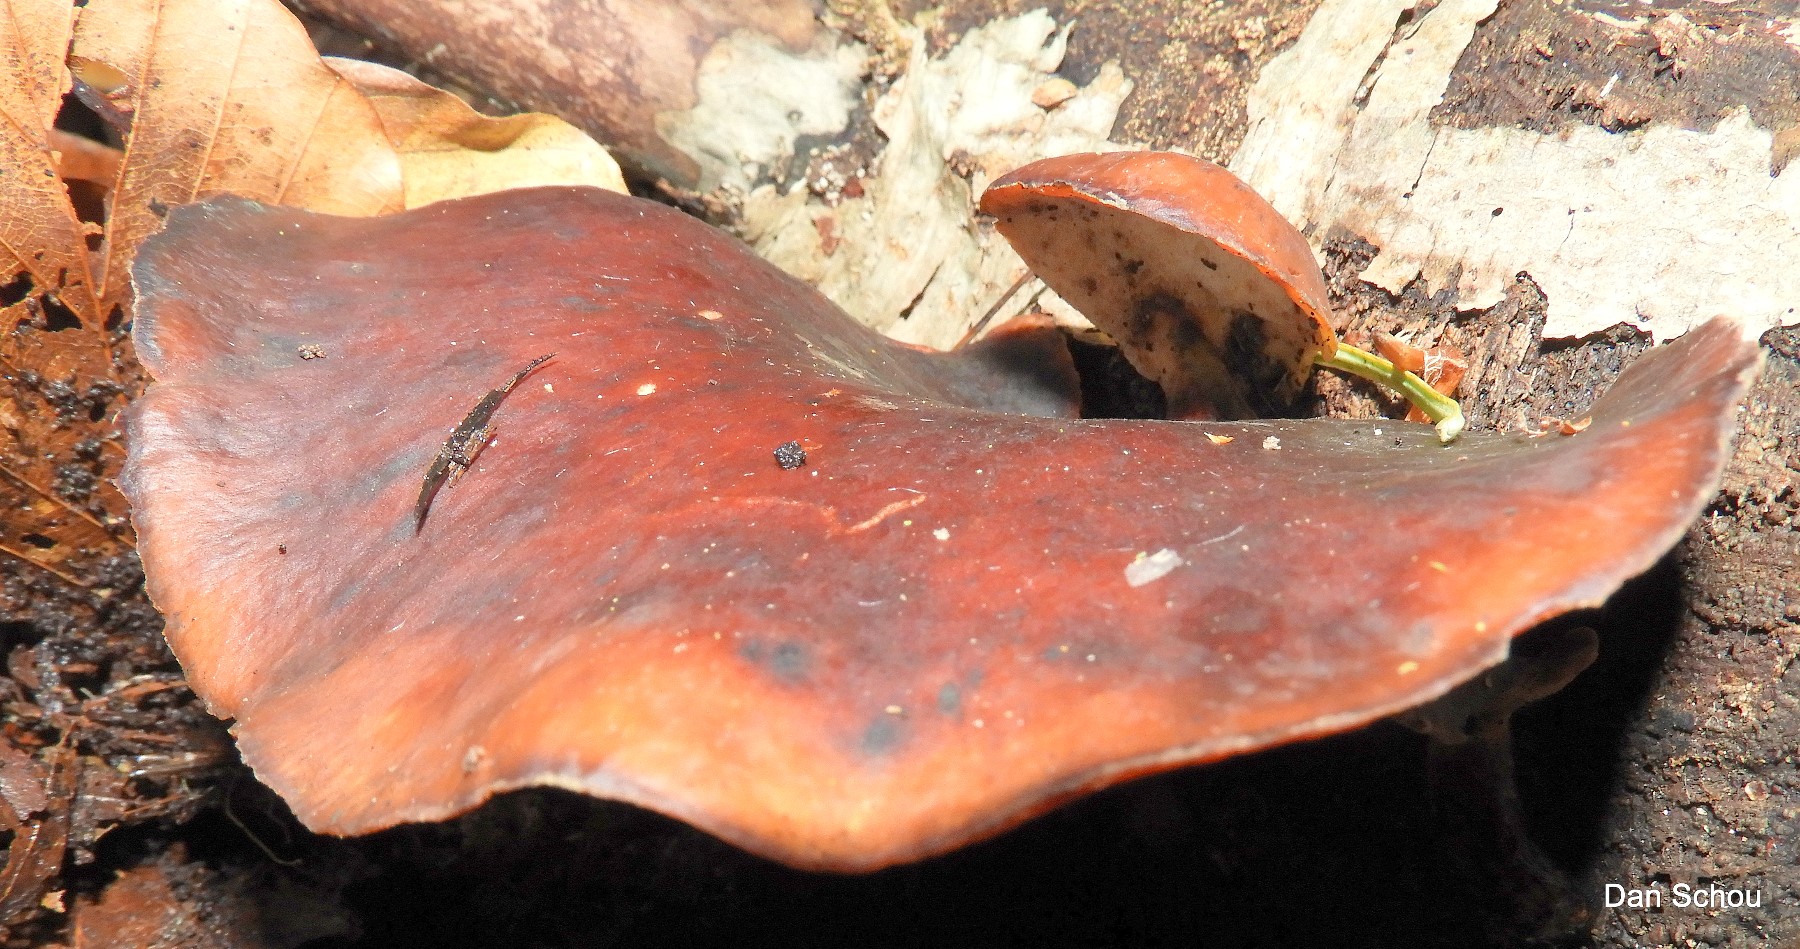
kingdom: Fungi
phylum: Basidiomycota
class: Agaricomycetes
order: Polyporales
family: Polyporaceae
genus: Picipes
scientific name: Picipes badius
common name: kastaniebrun stilkporesvamp
